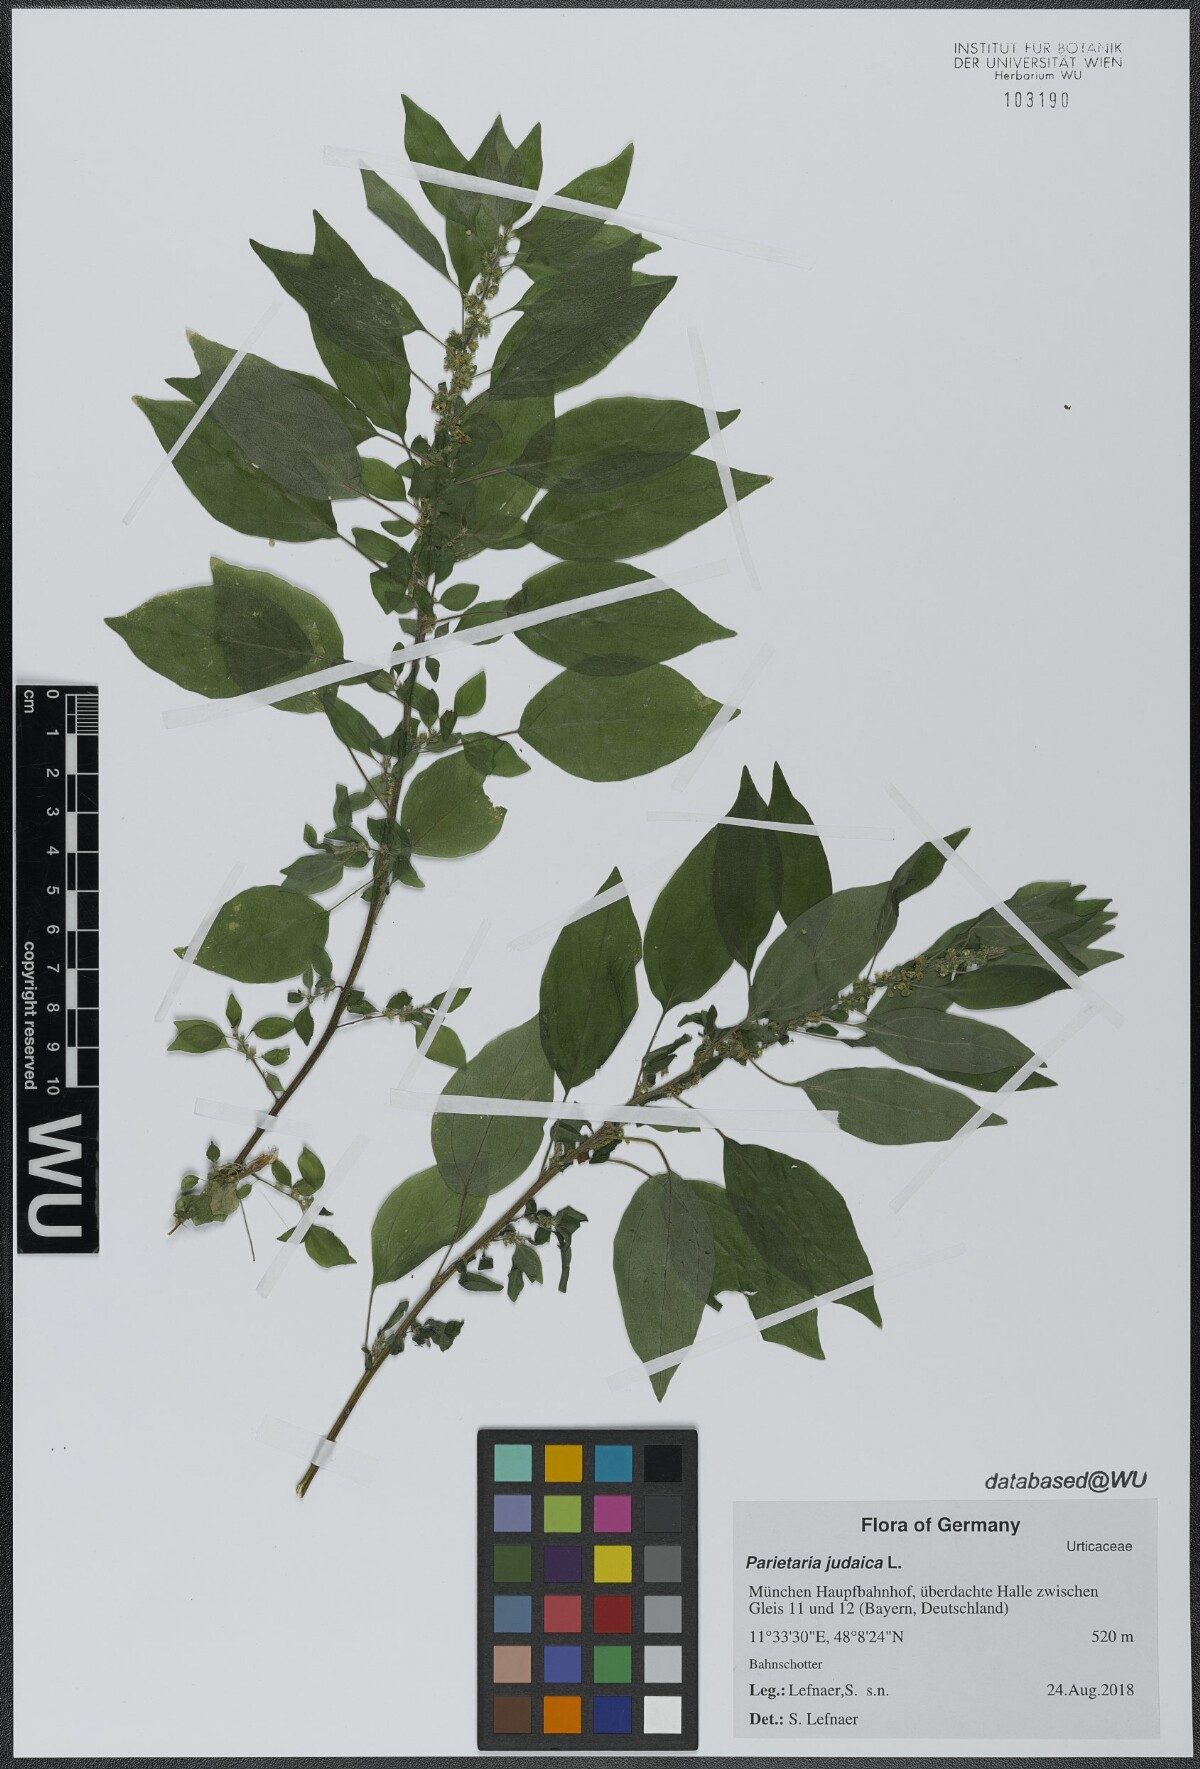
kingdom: Plantae
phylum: Tracheophyta
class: Magnoliopsida
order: Rosales
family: Urticaceae
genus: Parietaria
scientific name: Parietaria judaica
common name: Pellitory-of-the-wall
